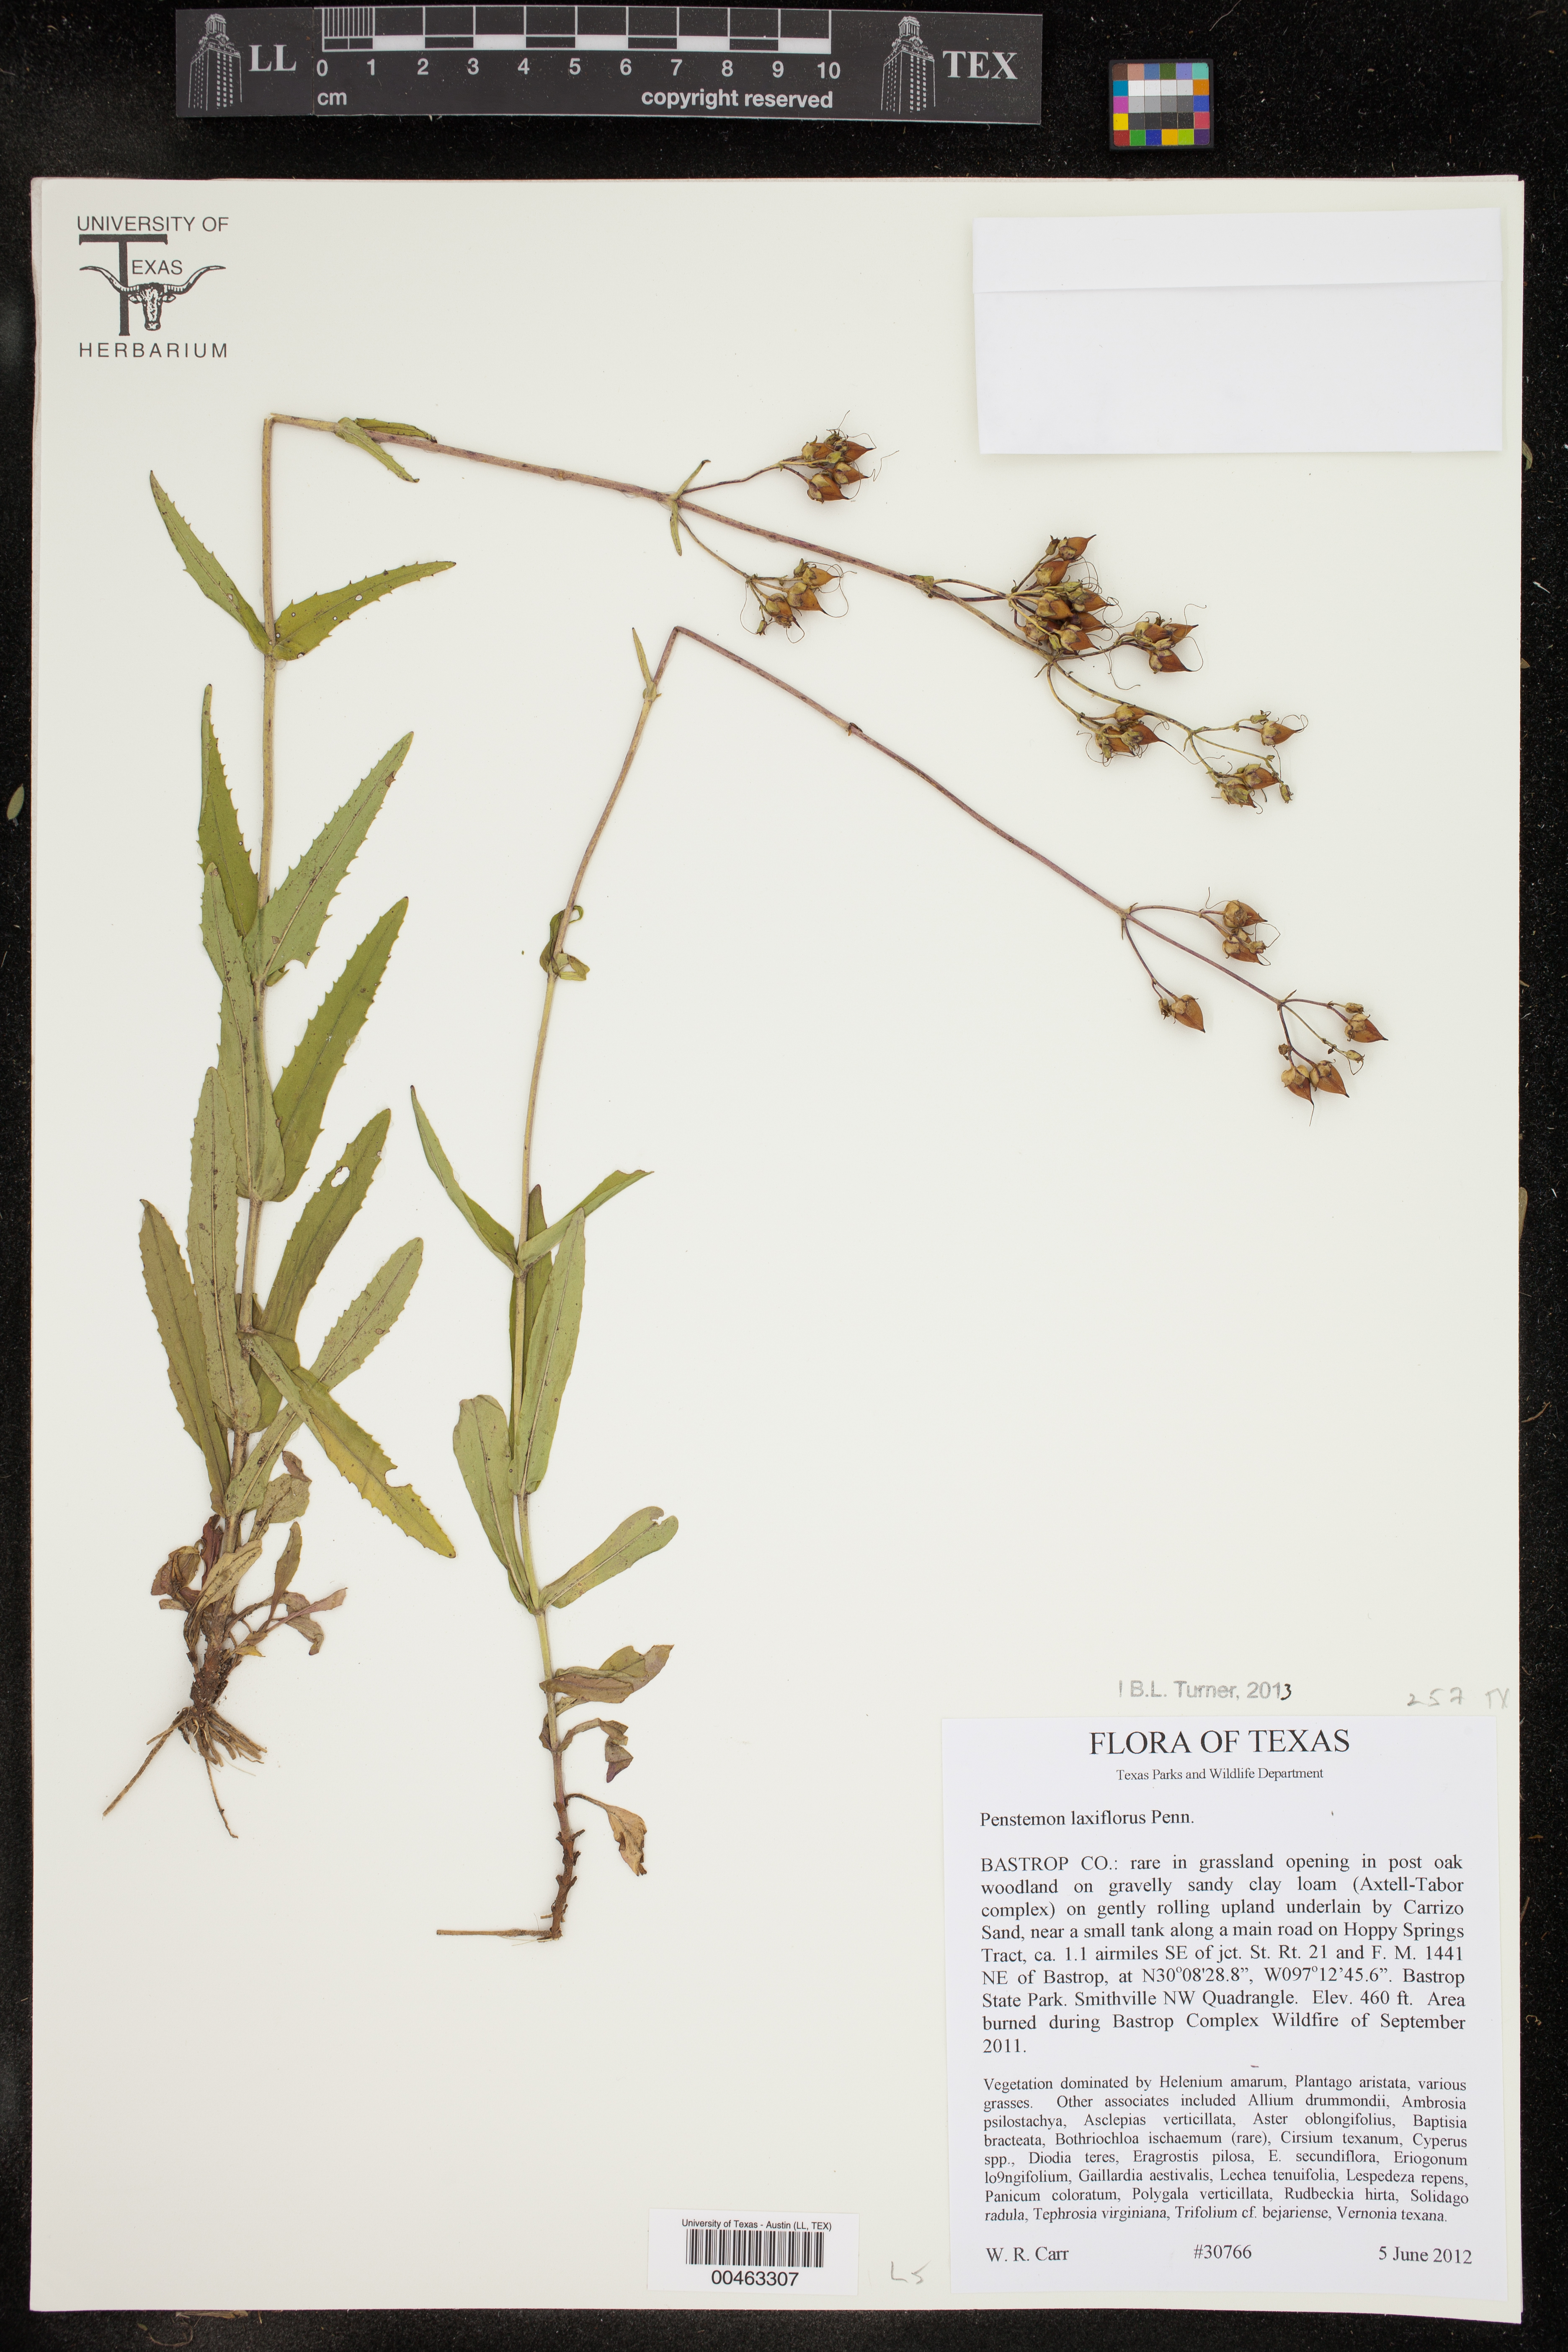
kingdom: Plantae
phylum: Tracheophyta
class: Magnoliopsida
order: Lamiales
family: Plantaginaceae
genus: Penstemon
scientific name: Penstemon laxiflorus
